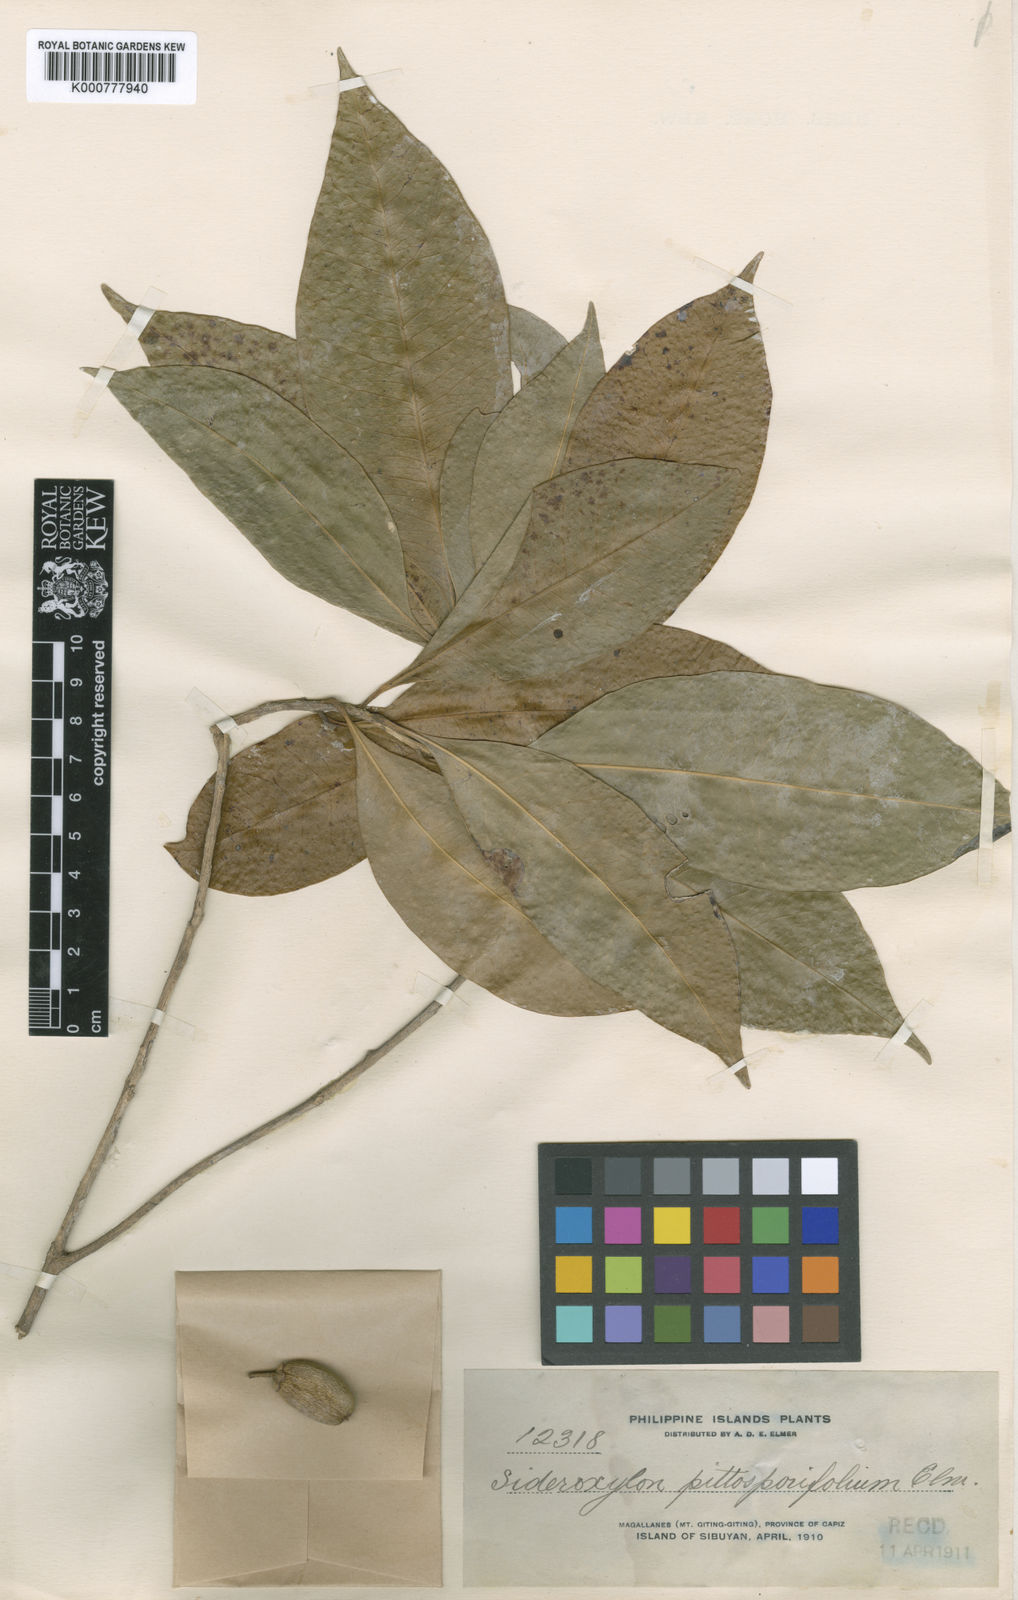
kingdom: Plantae
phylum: Tracheophyta
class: Magnoliopsida
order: Ericales
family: Sapotaceae
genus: Planchonella
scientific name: Planchonella chartacea
